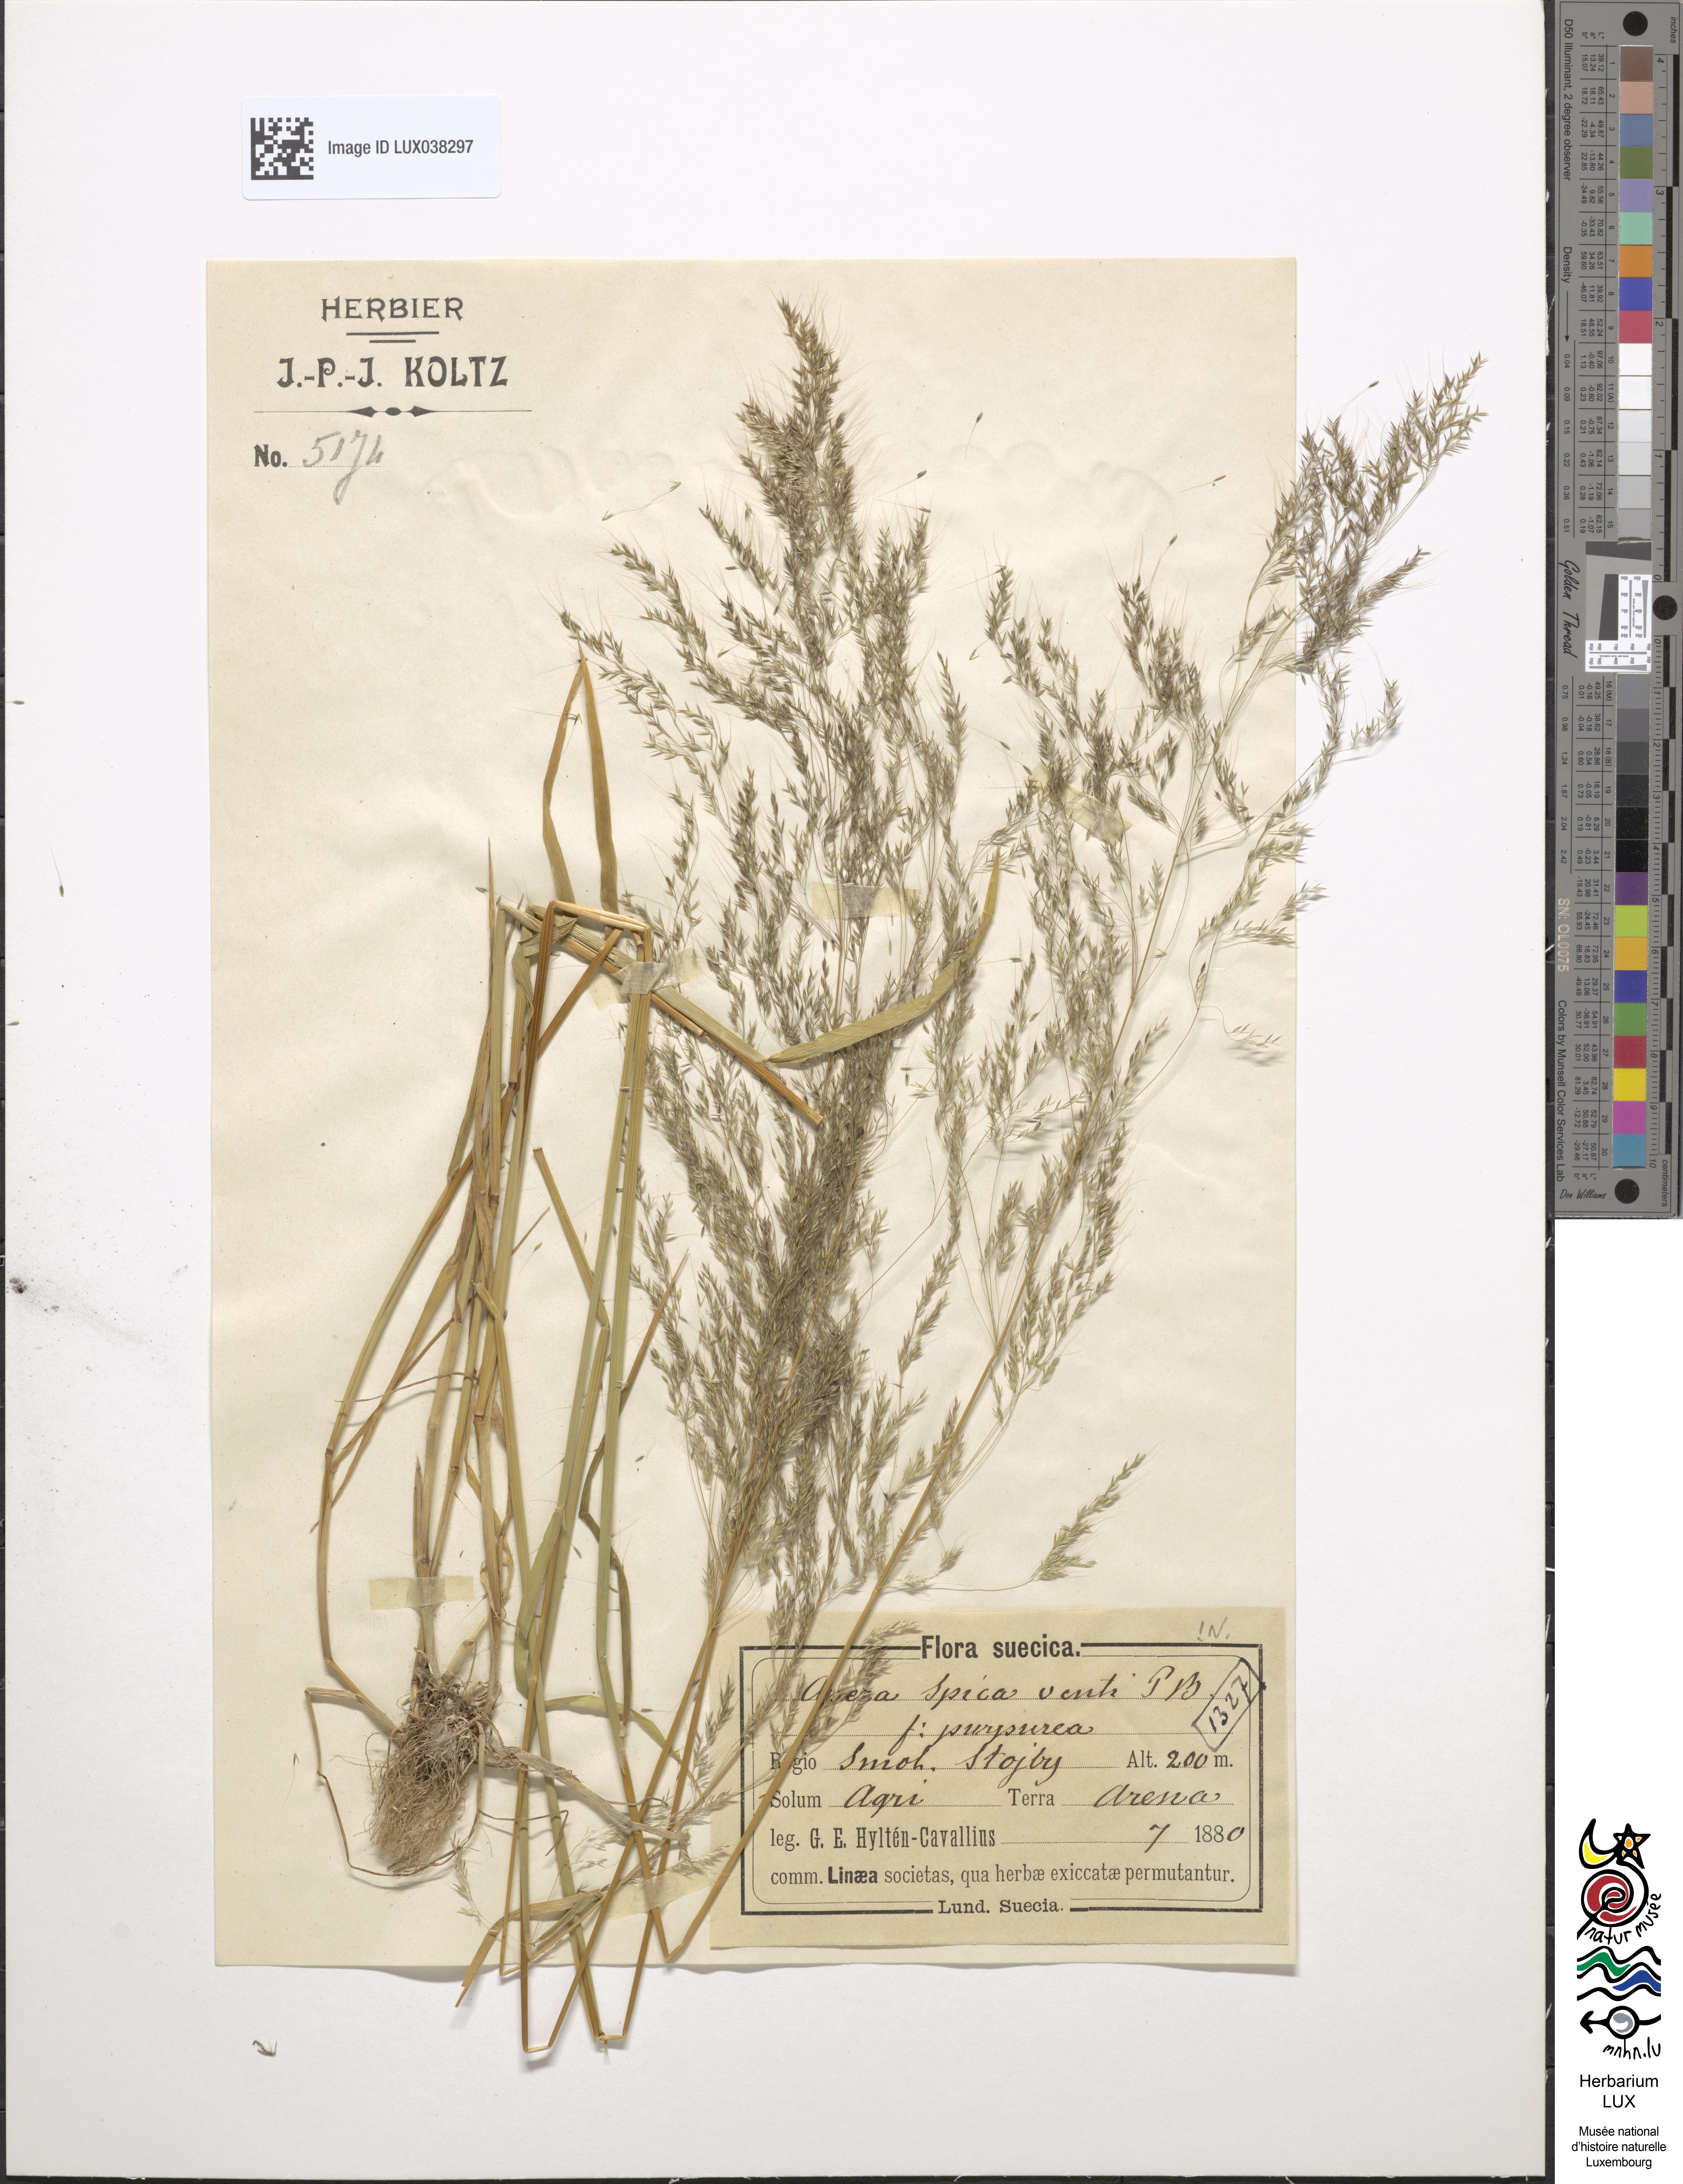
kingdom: Plantae
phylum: Tracheophyta
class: Liliopsida
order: Poales
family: Poaceae
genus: Apera
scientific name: Apera spica-venti
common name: Loose silky-bent
